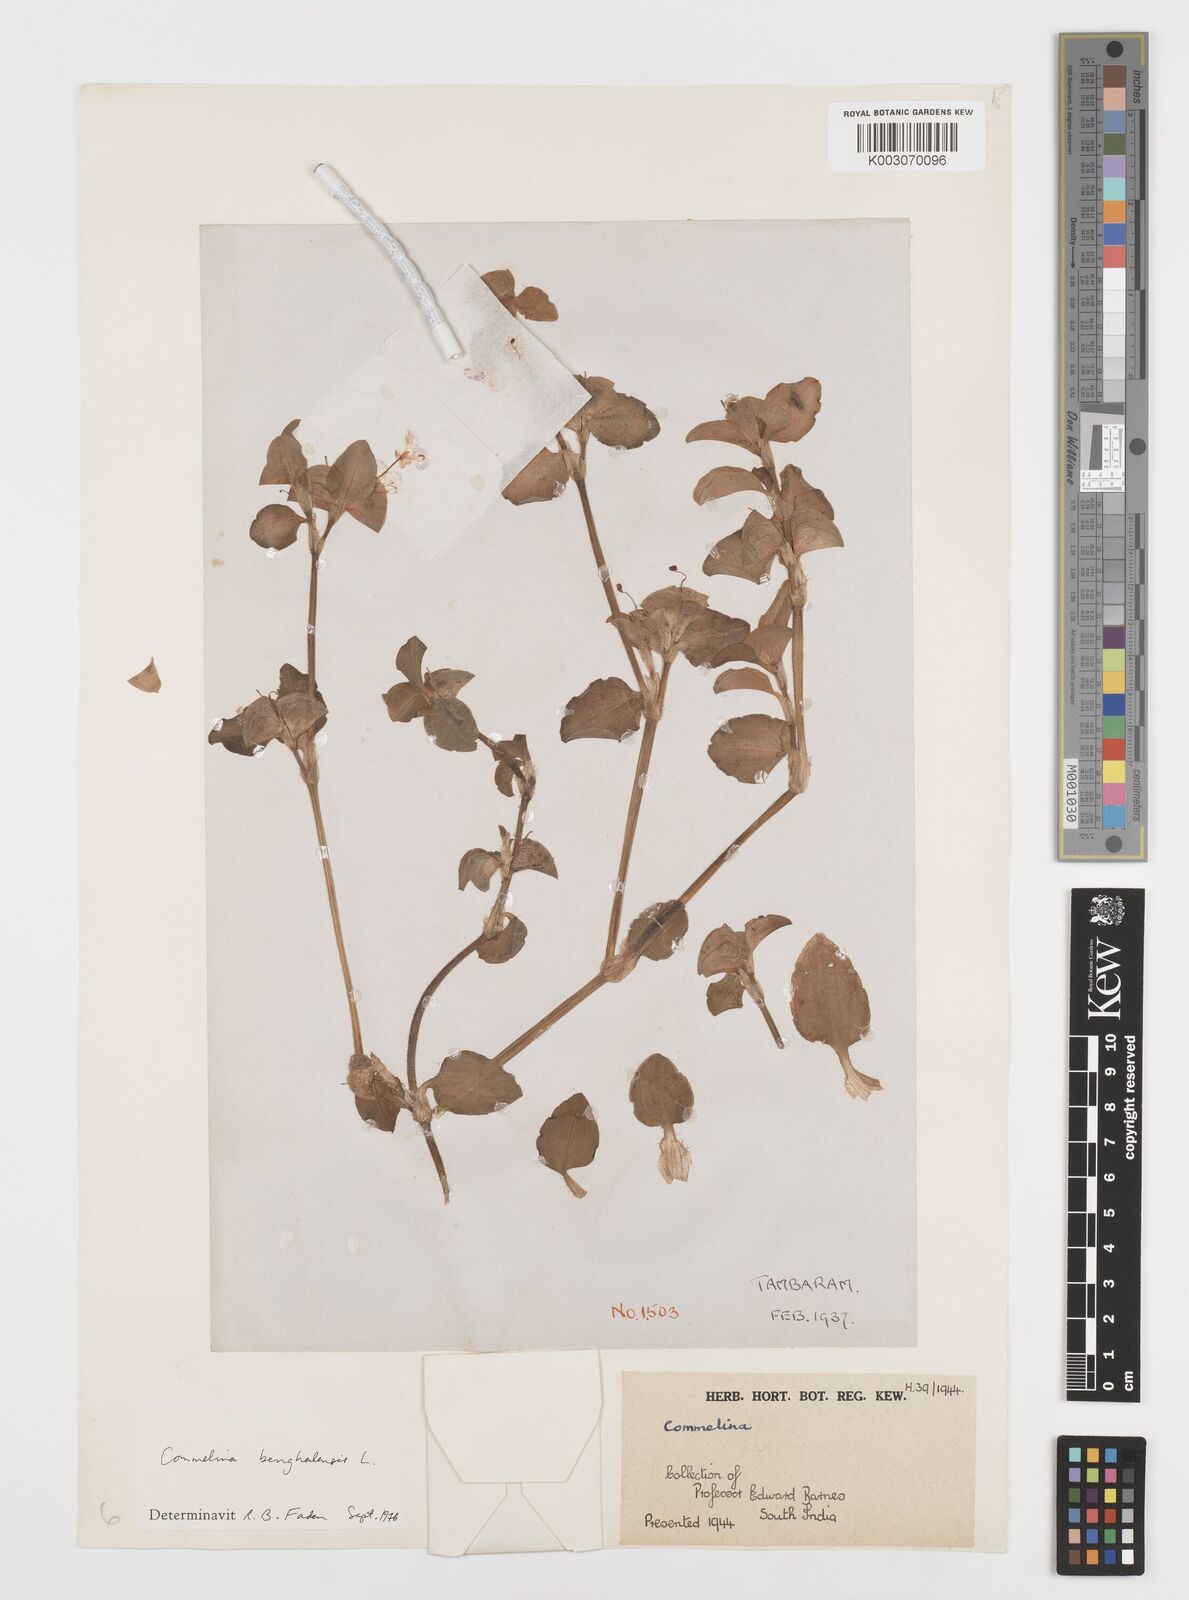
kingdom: Plantae
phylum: Tracheophyta
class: Liliopsida
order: Commelinales
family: Commelinaceae
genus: Commelina
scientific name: Commelina benghalensis
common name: Jio
